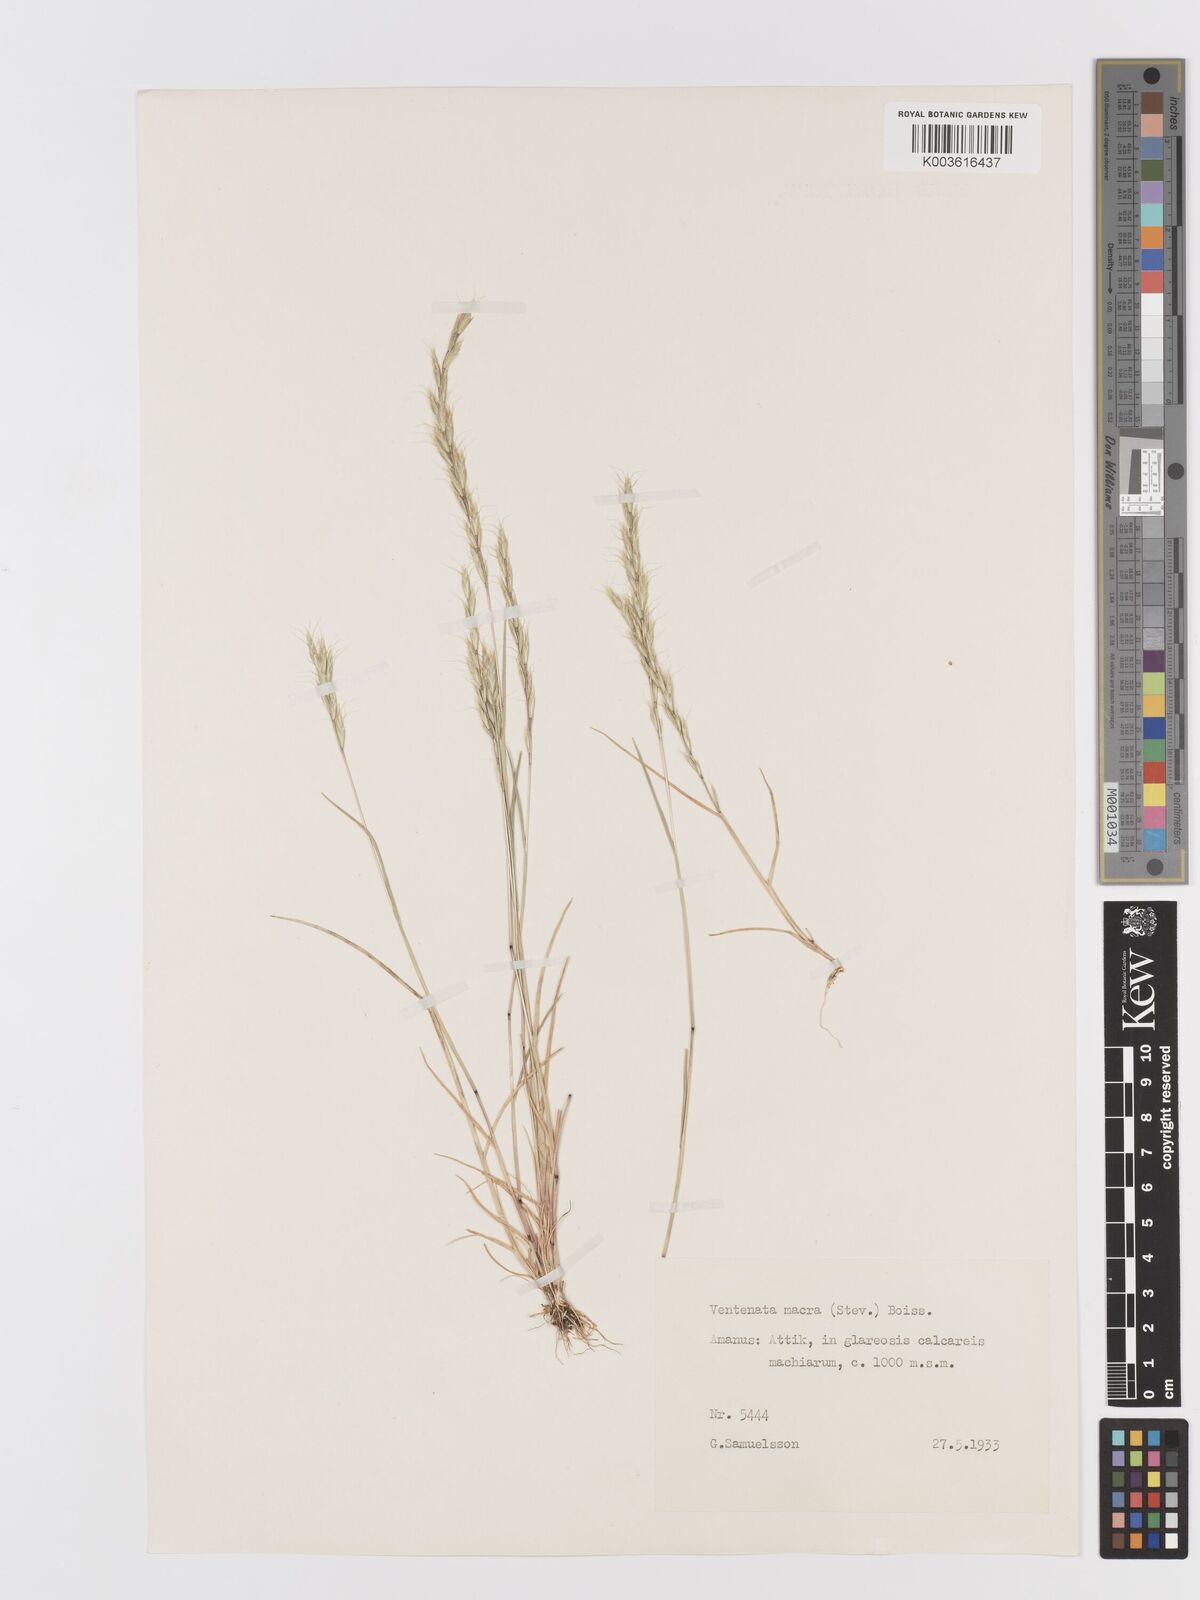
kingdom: Plantae
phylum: Tracheophyta
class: Liliopsida
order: Poales
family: Poaceae
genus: Ventenata
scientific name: Ventenata macra
